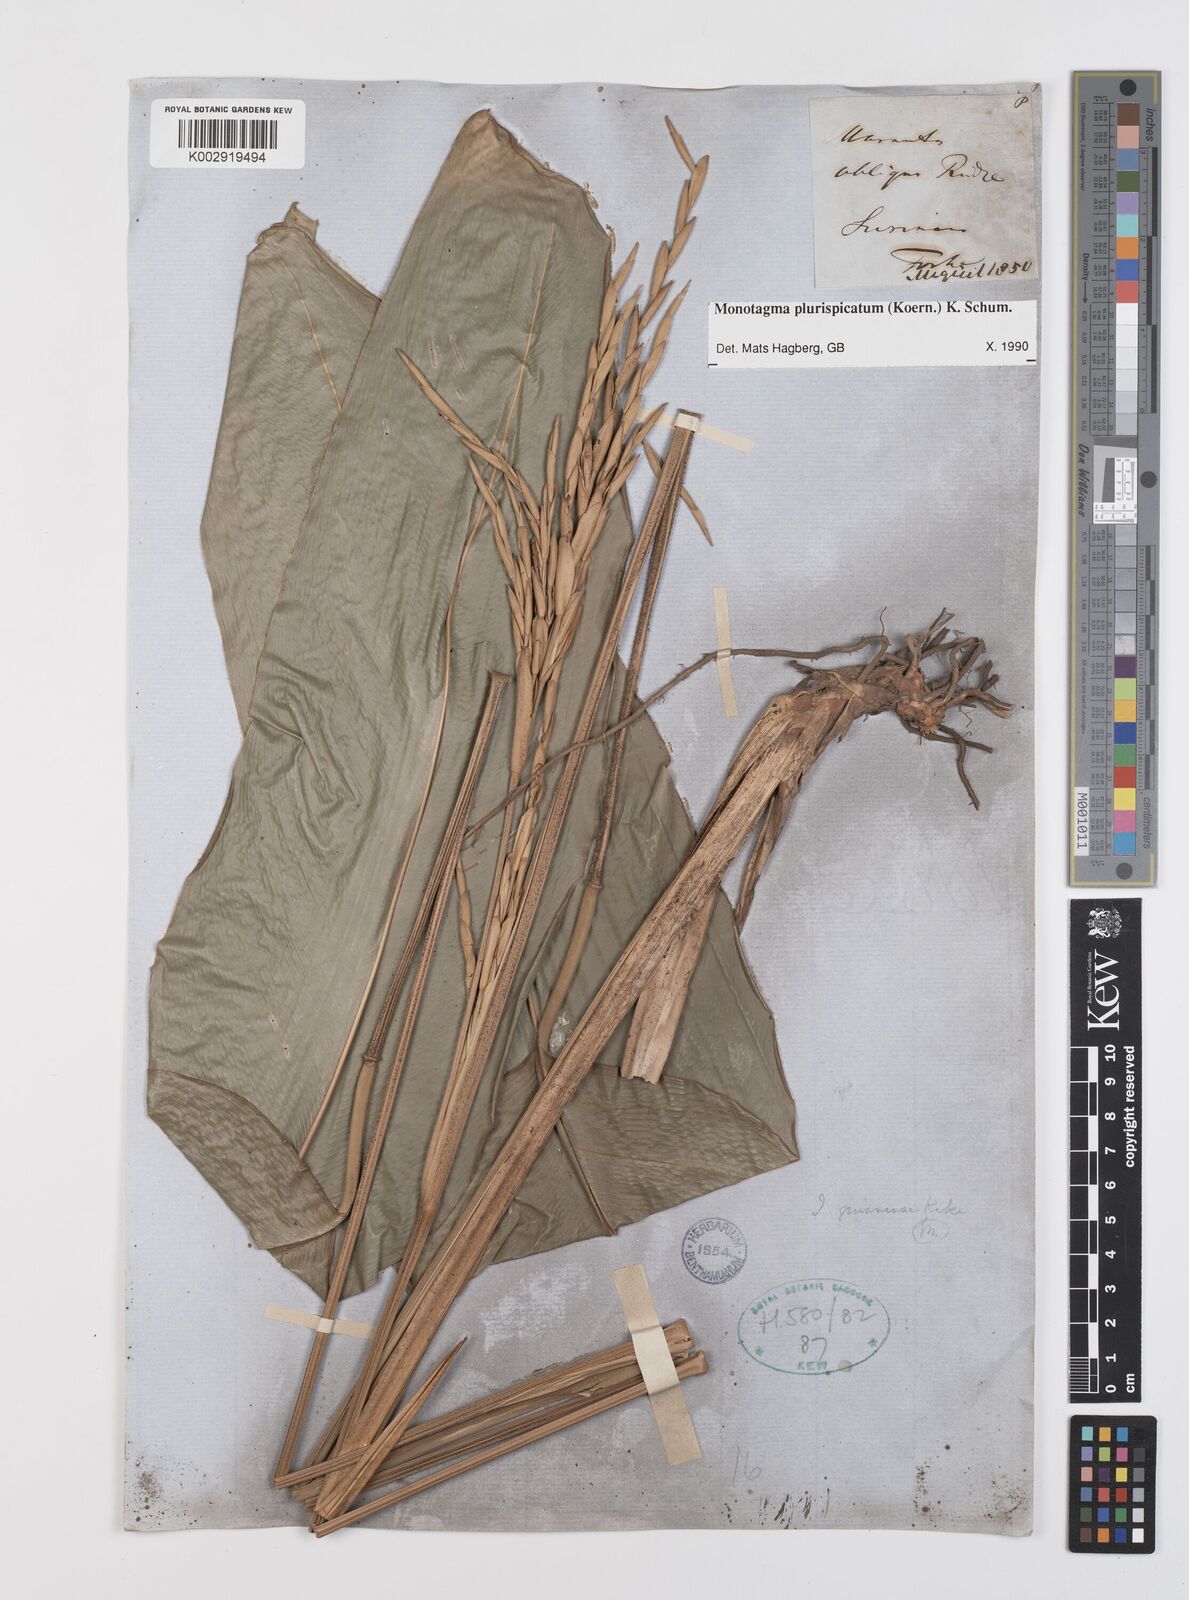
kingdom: Plantae
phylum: Tracheophyta
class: Liliopsida
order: Zingiberales
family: Marantaceae
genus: Monotagma
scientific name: Monotagma plurispicatum
